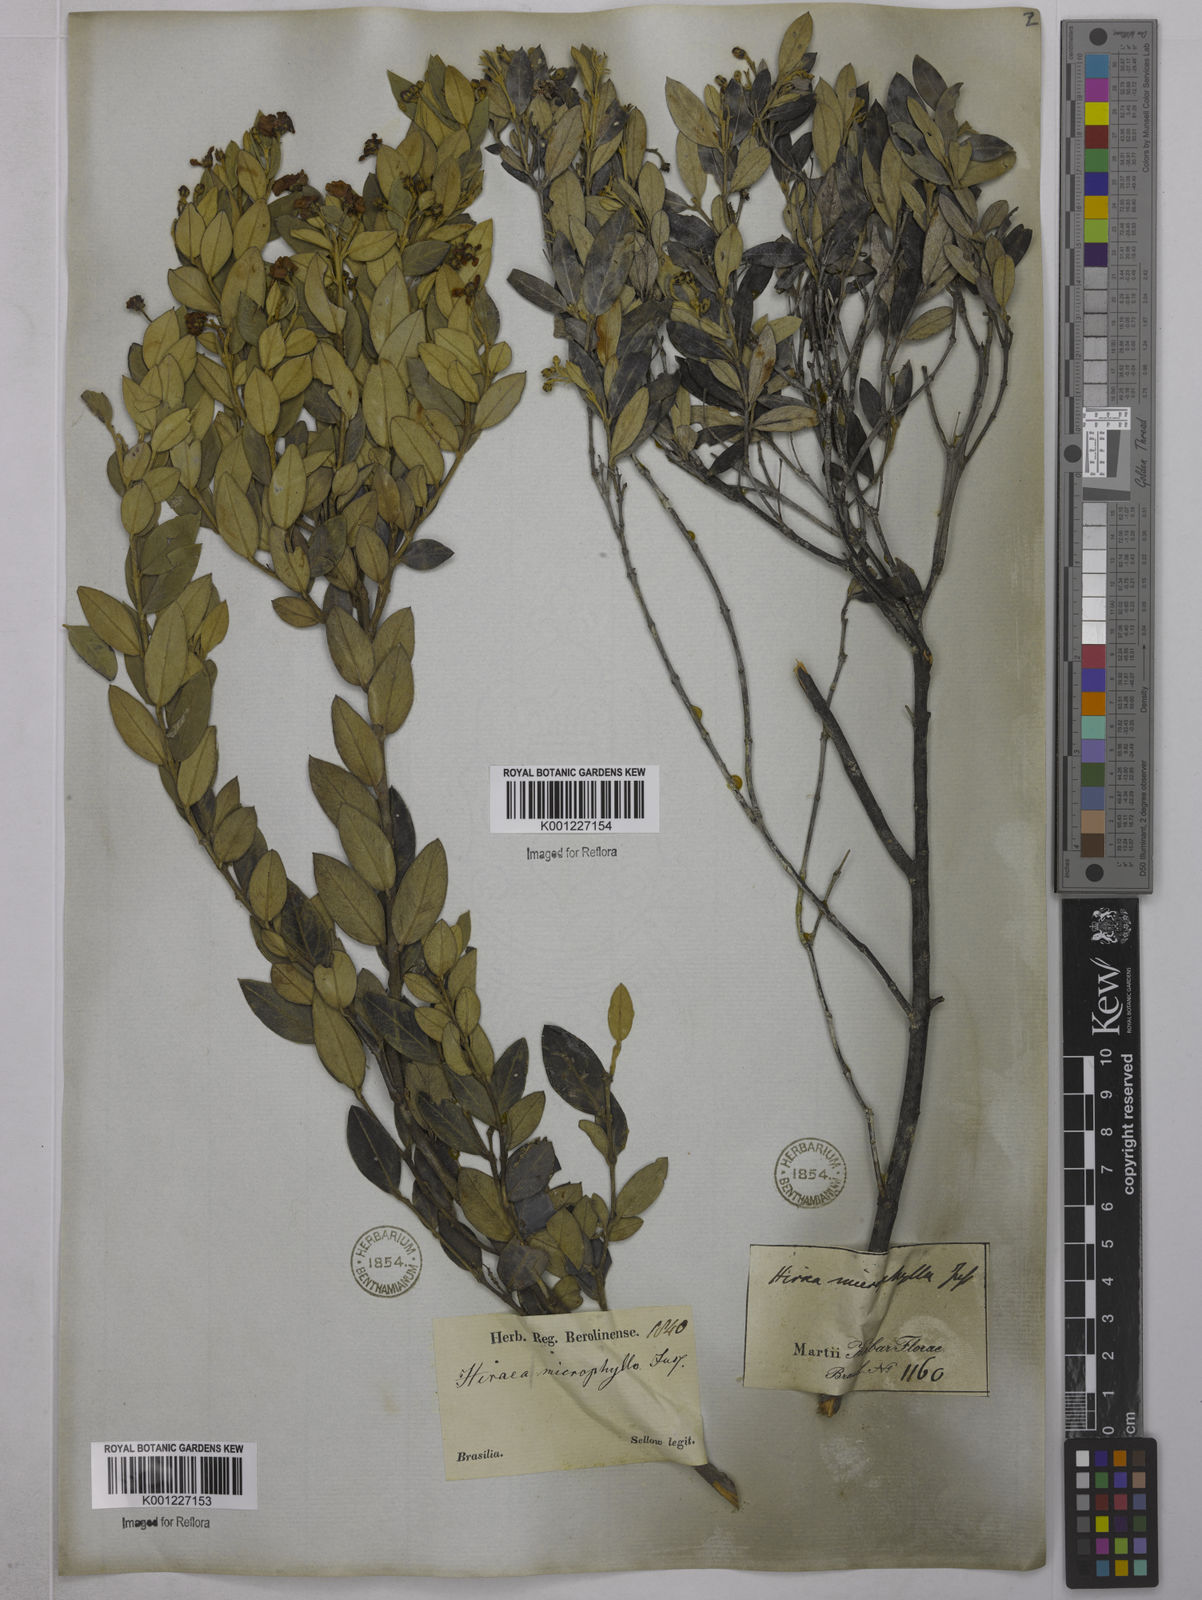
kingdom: Plantae
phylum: Tracheophyta
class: Magnoliopsida
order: Malpighiales
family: Malpighiaceae
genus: Glicophyllum
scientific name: Glicophyllum microphyllum
